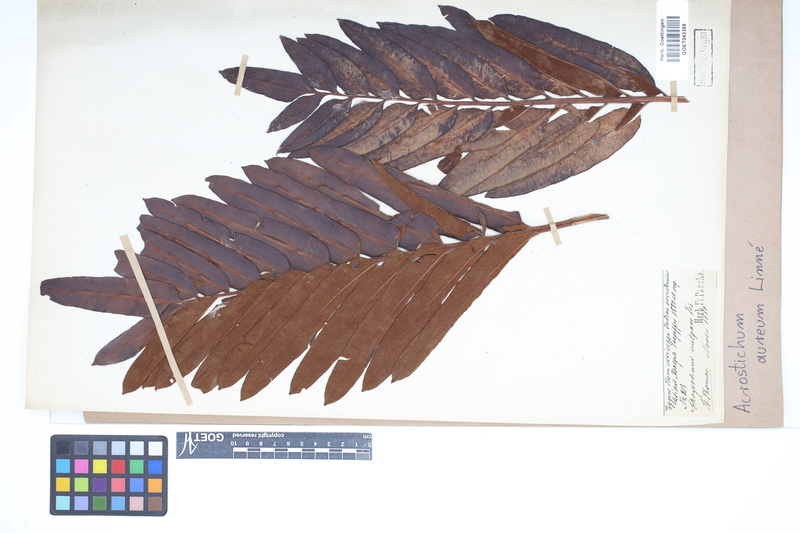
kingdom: Plantae
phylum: Tracheophyta
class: Polypodiopsida
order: Polypodiales
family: Pteridaceae
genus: Acrostichum
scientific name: Acrostichum aureum
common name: Leather fern
